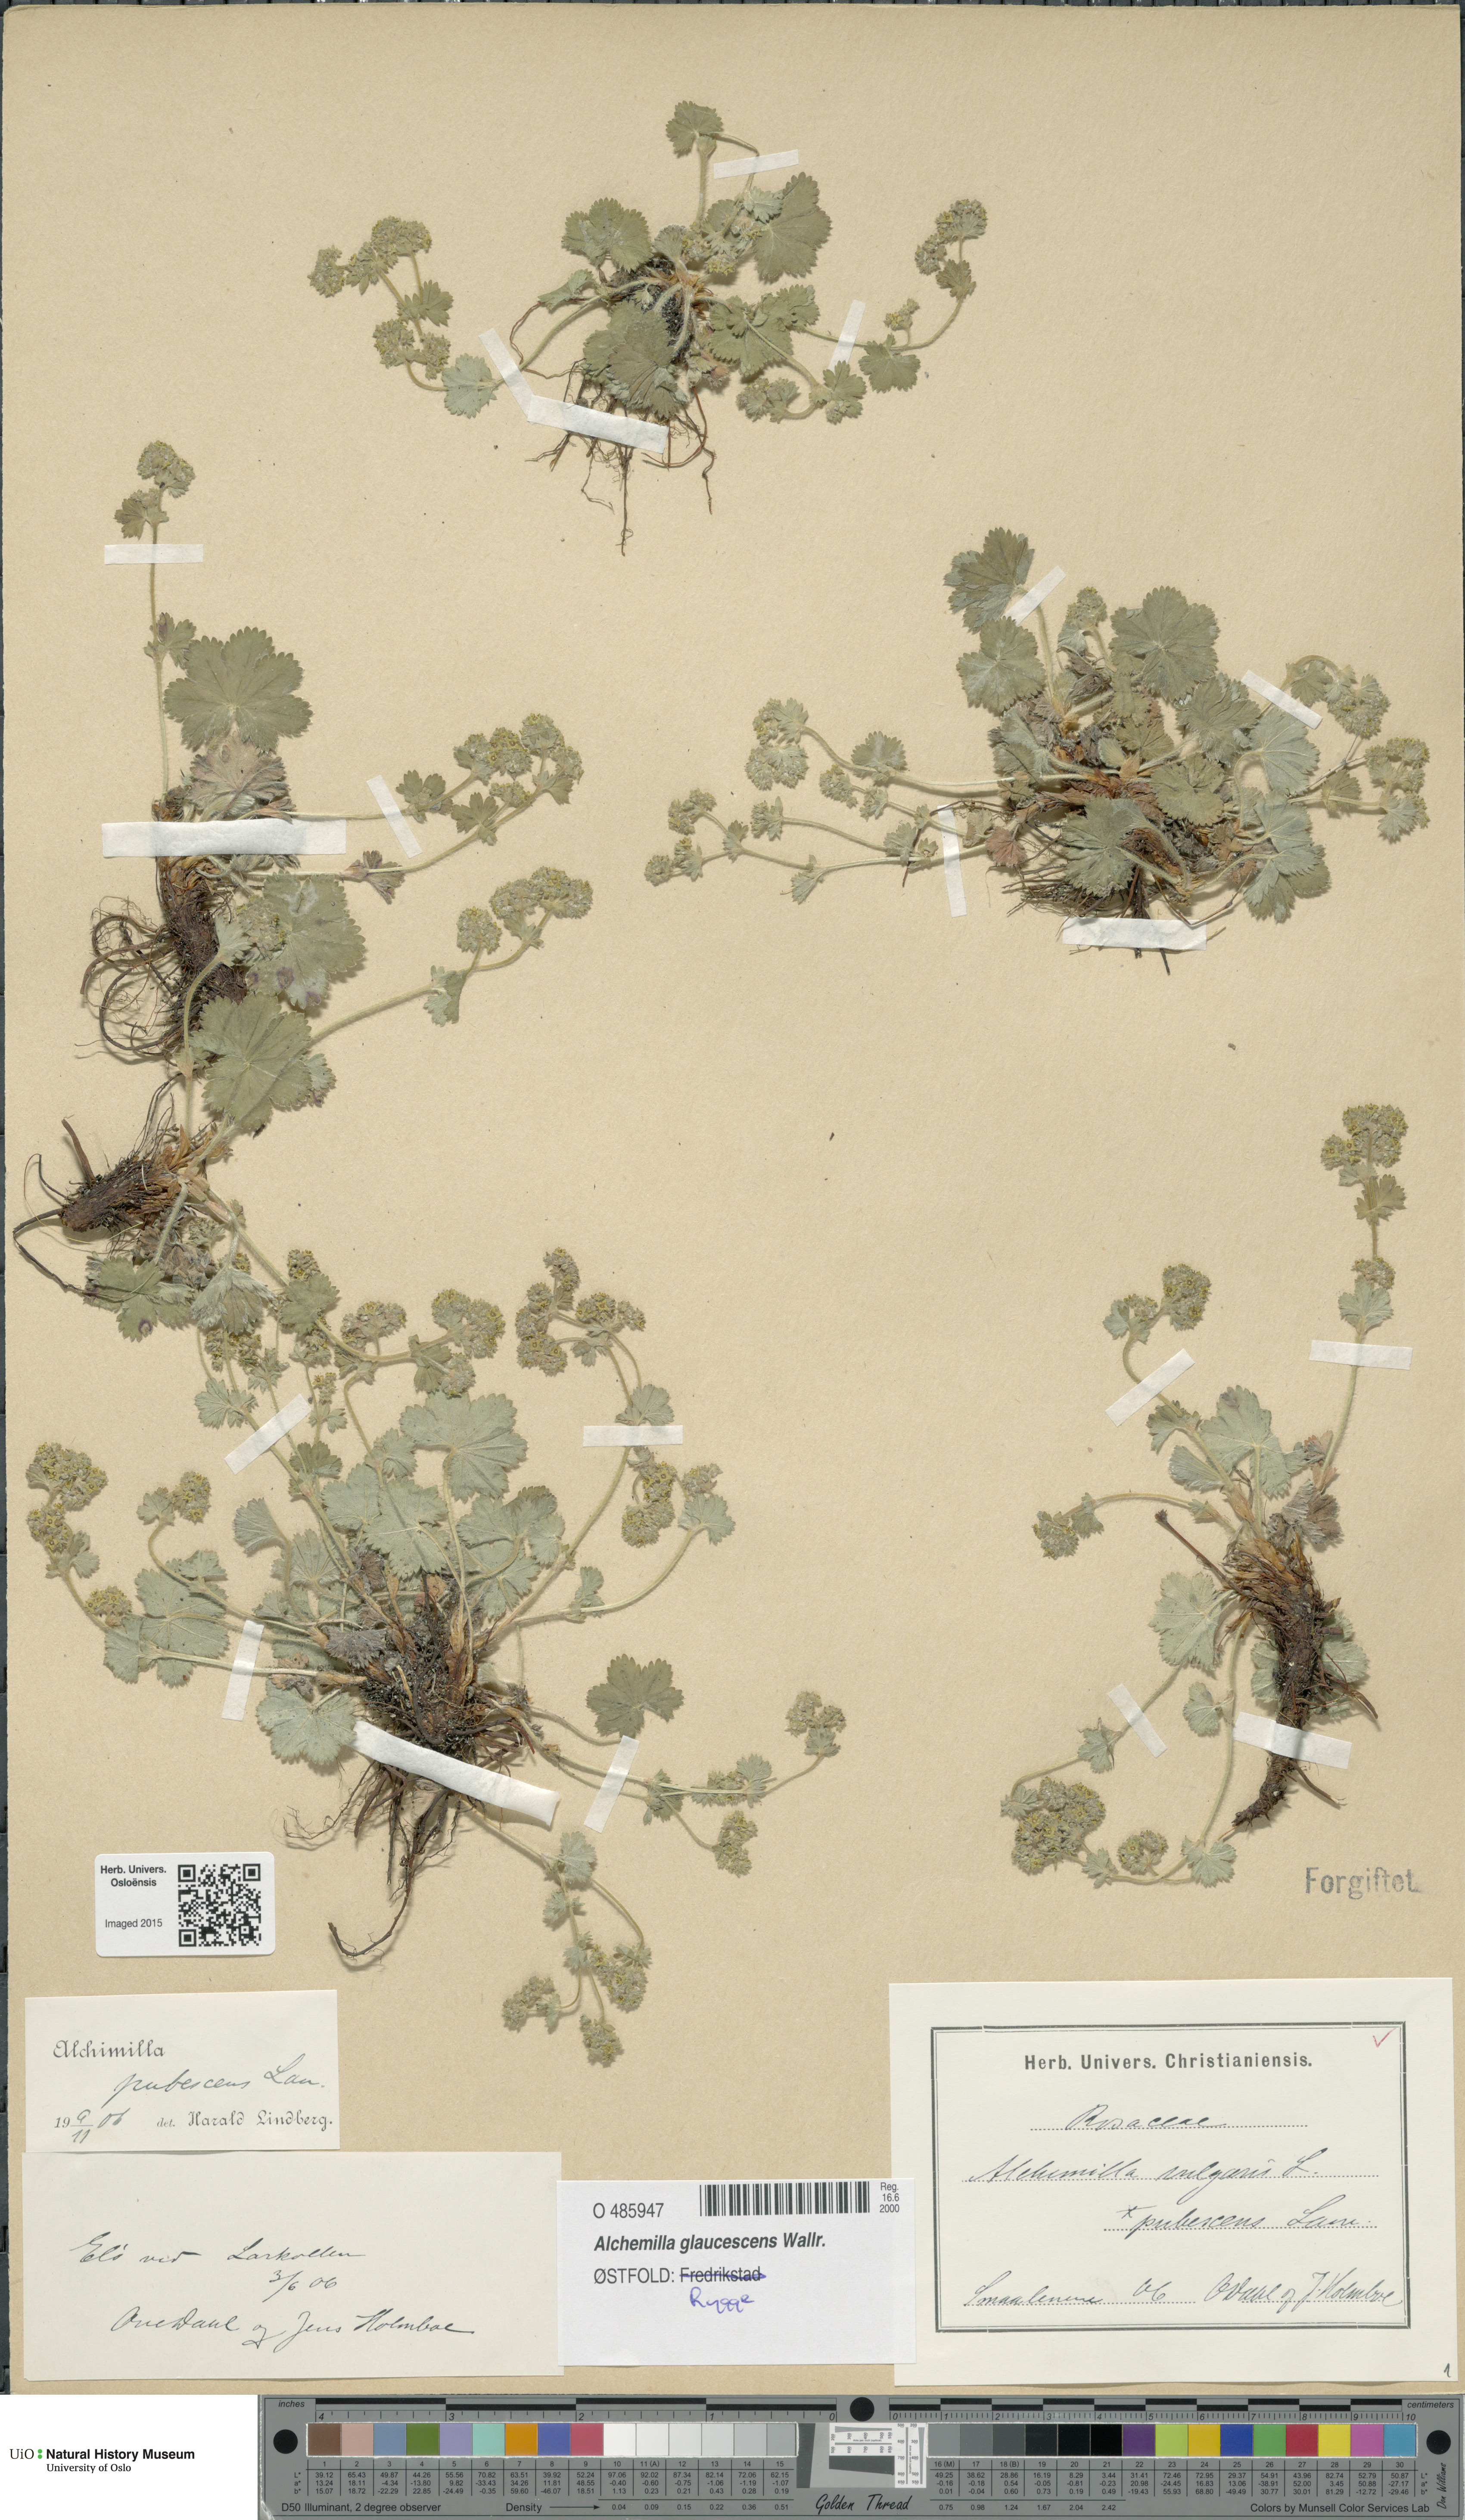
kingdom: Plantae
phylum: Tracheophyta
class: Magnoliopsida
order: Rosales
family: Rosaceae
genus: Alchemilla
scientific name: Alchemilla glaucescens
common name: Silky lady's mantle
